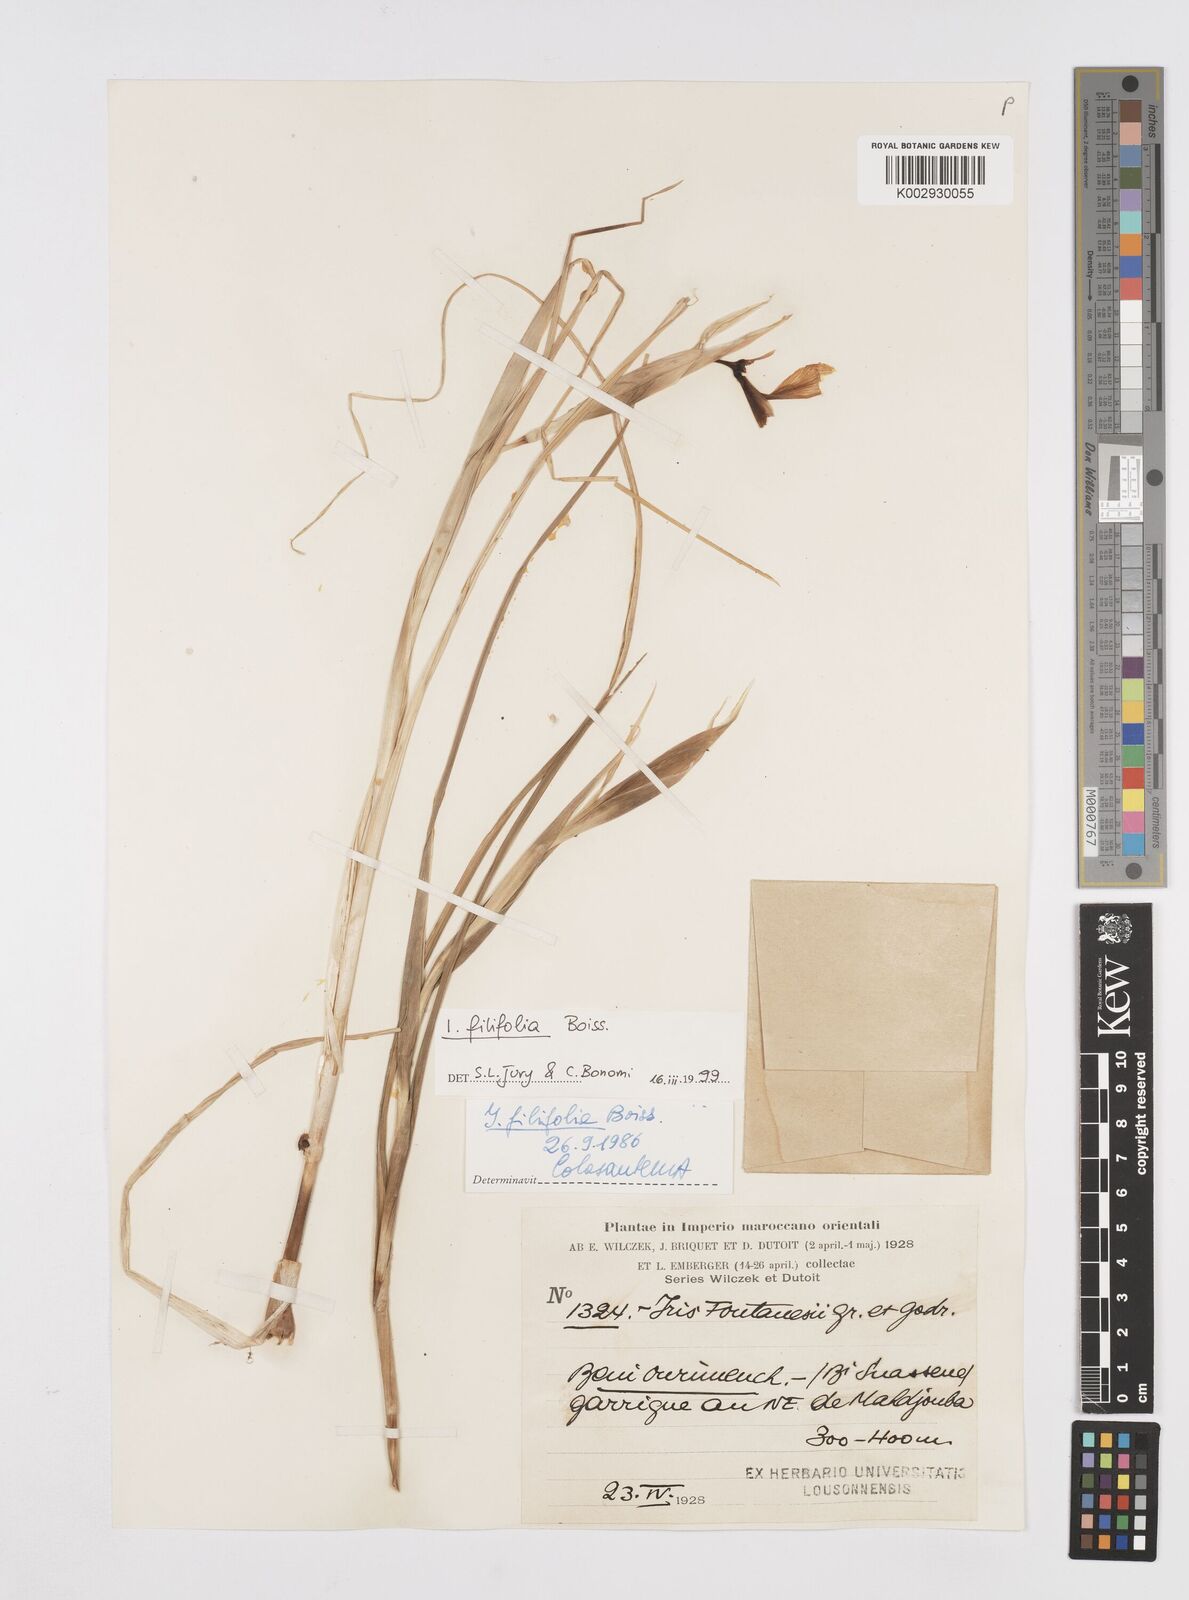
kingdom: Plantae
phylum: Tracheophyta
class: Liliopsida
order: Asparagales
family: Iridaceae
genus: Iris
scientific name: Iris filifolia
